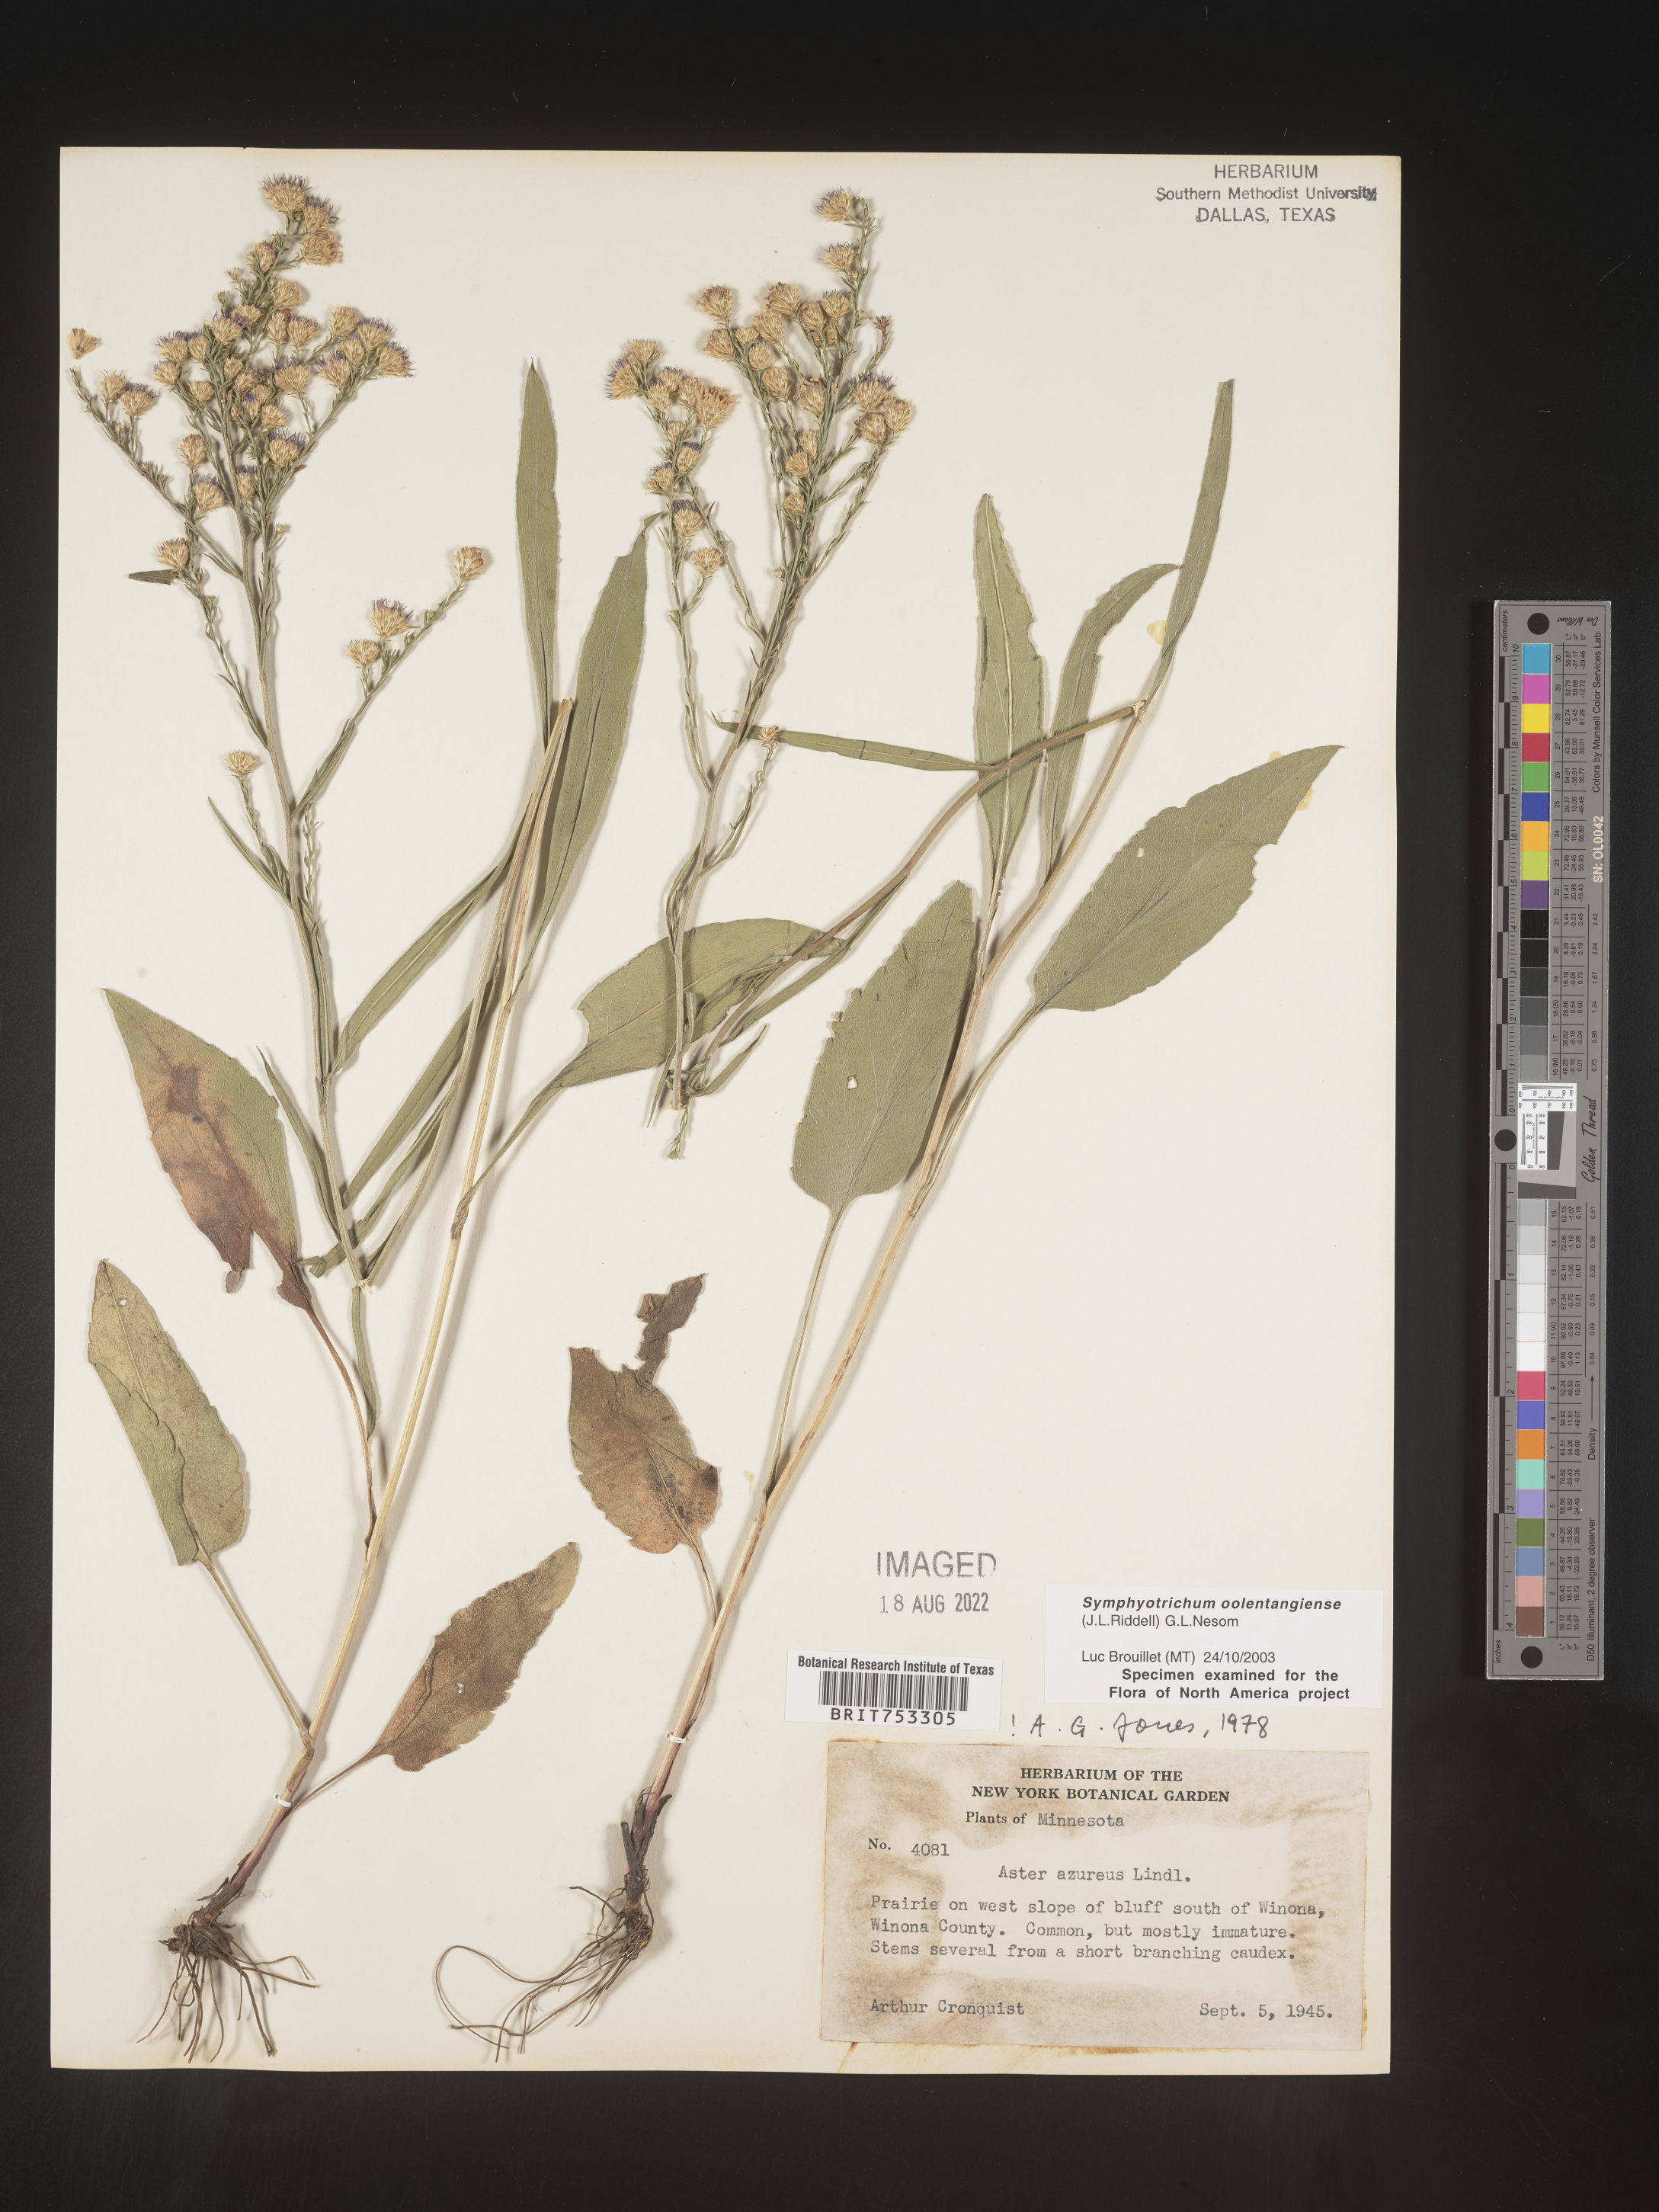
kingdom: Plantae
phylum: Tracheophyta
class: Magnoliopsida
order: Asterales
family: Asteraceae
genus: Symphyotrichum
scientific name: Symphyotrichum oolentangiense
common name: Azure aster
